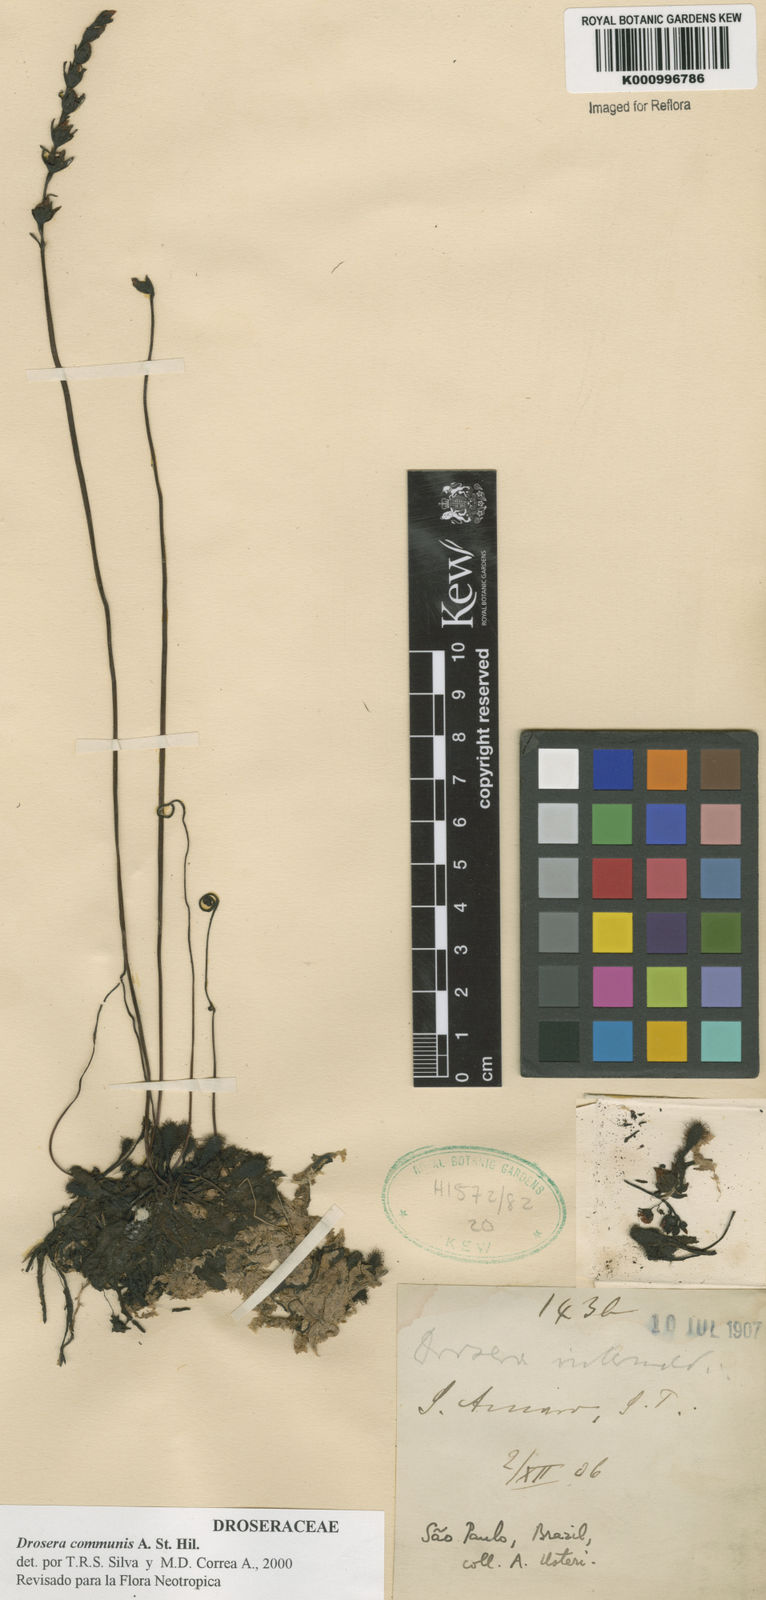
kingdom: Plantae
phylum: Tracheophyta
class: Magnoliopsida
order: Caryophyllales
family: Droseraceae
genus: Drosera
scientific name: Drosera communis
